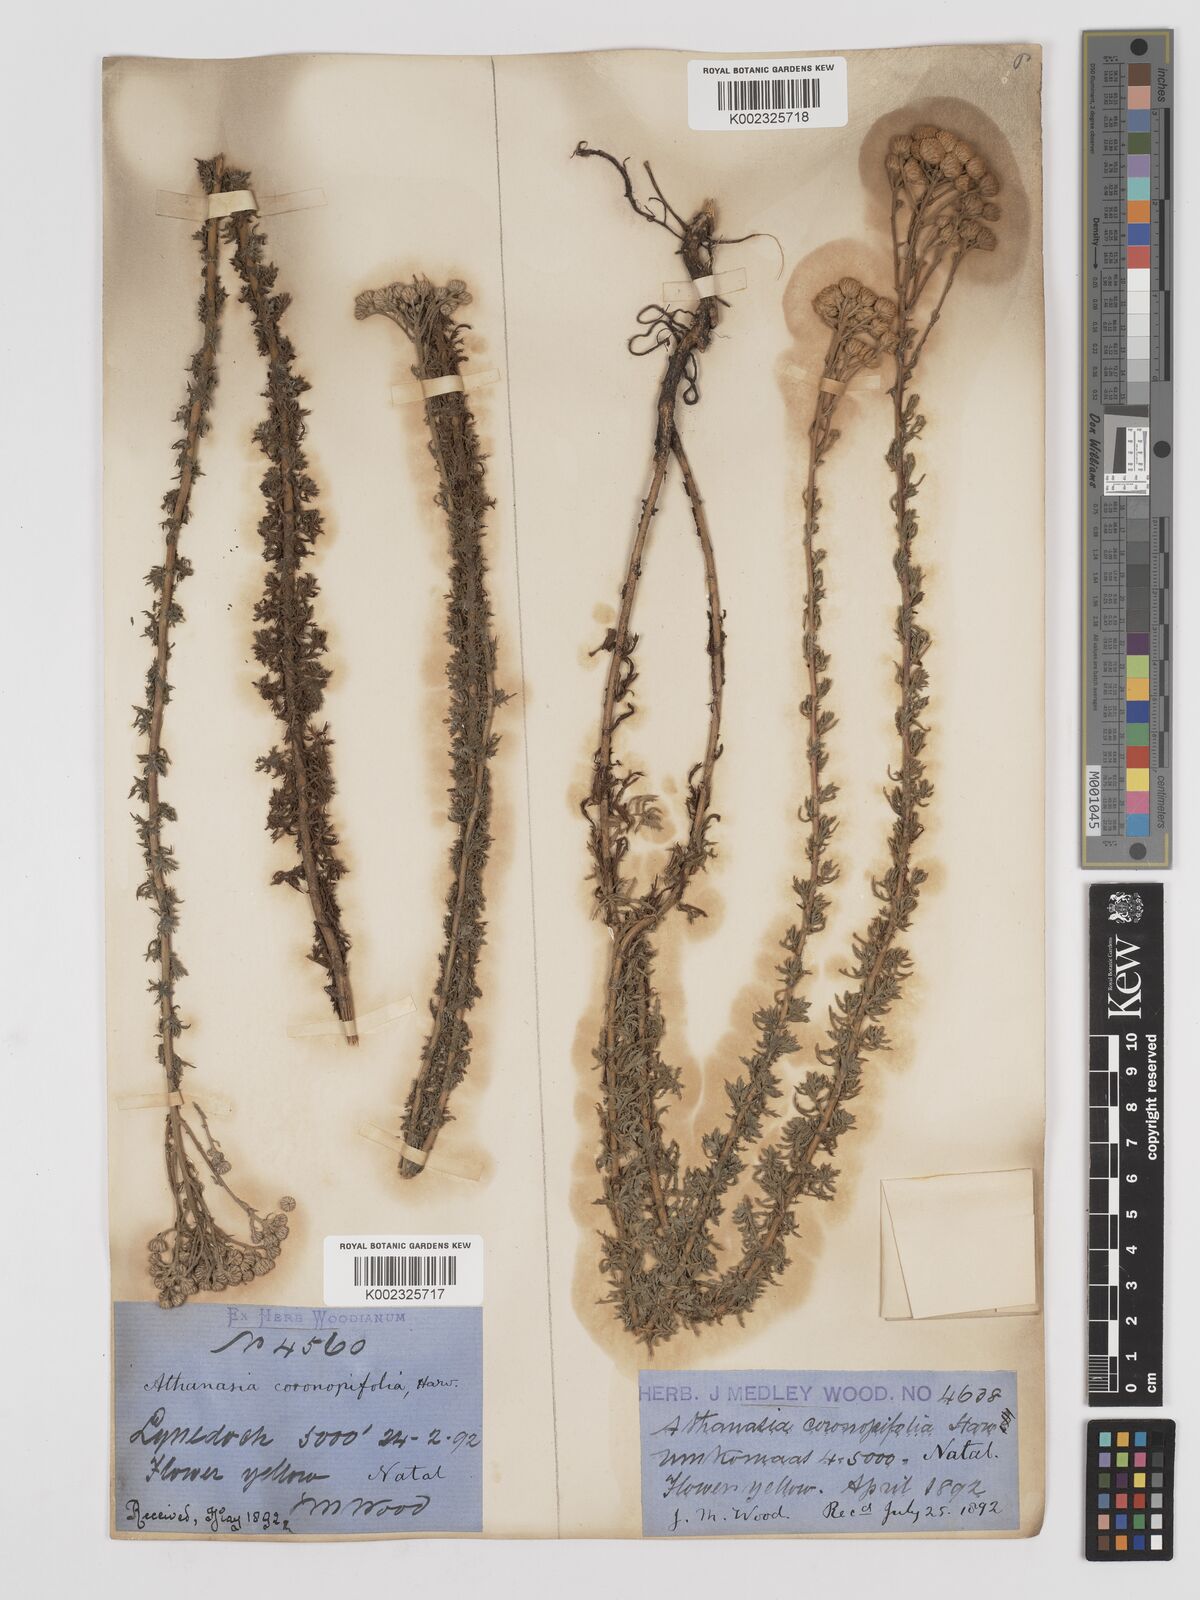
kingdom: Plantae
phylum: Tracheophyta
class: Magnoliopsida
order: Asterales
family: Asteraceae
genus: Inulanthera
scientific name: Inulanthera coronopifolia
